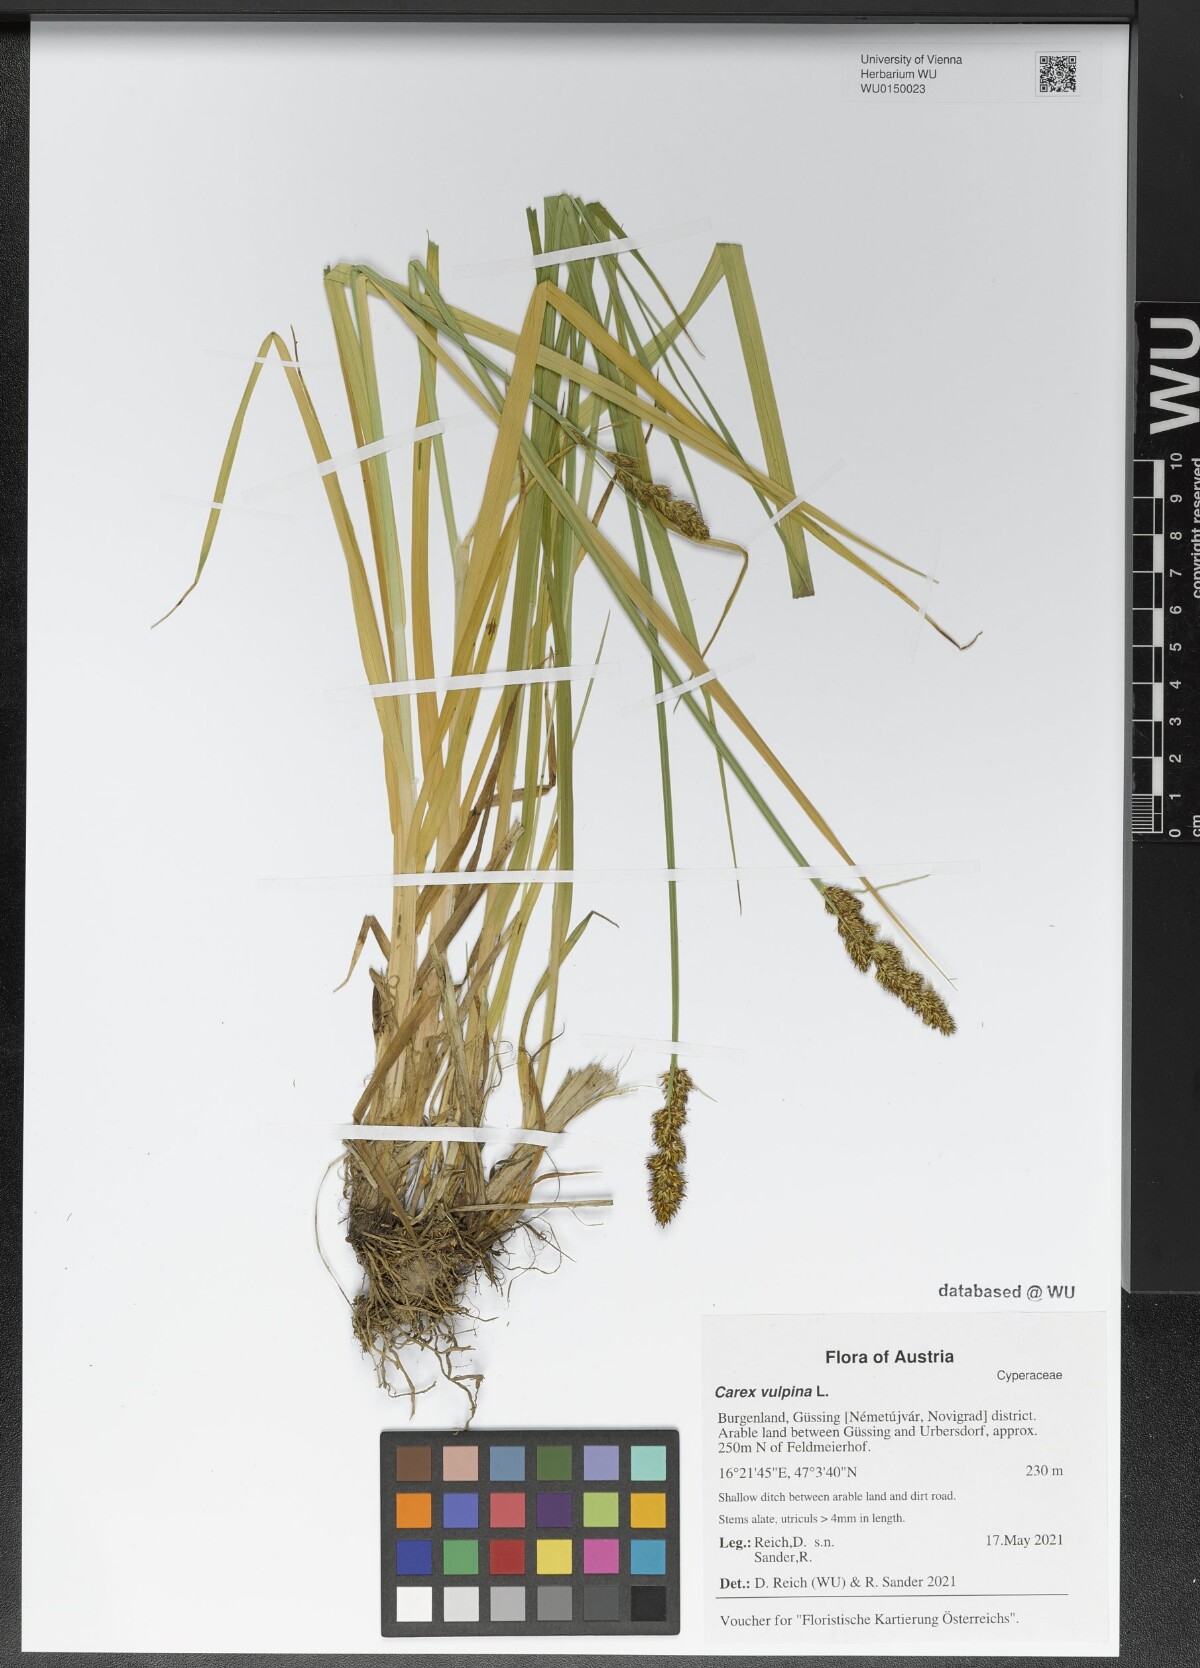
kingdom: Plantae
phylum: Tracheophyta
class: Liliopsida
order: Poales
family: Cyperaceae
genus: Carex
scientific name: Carex vulpina
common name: True fox-sedge
